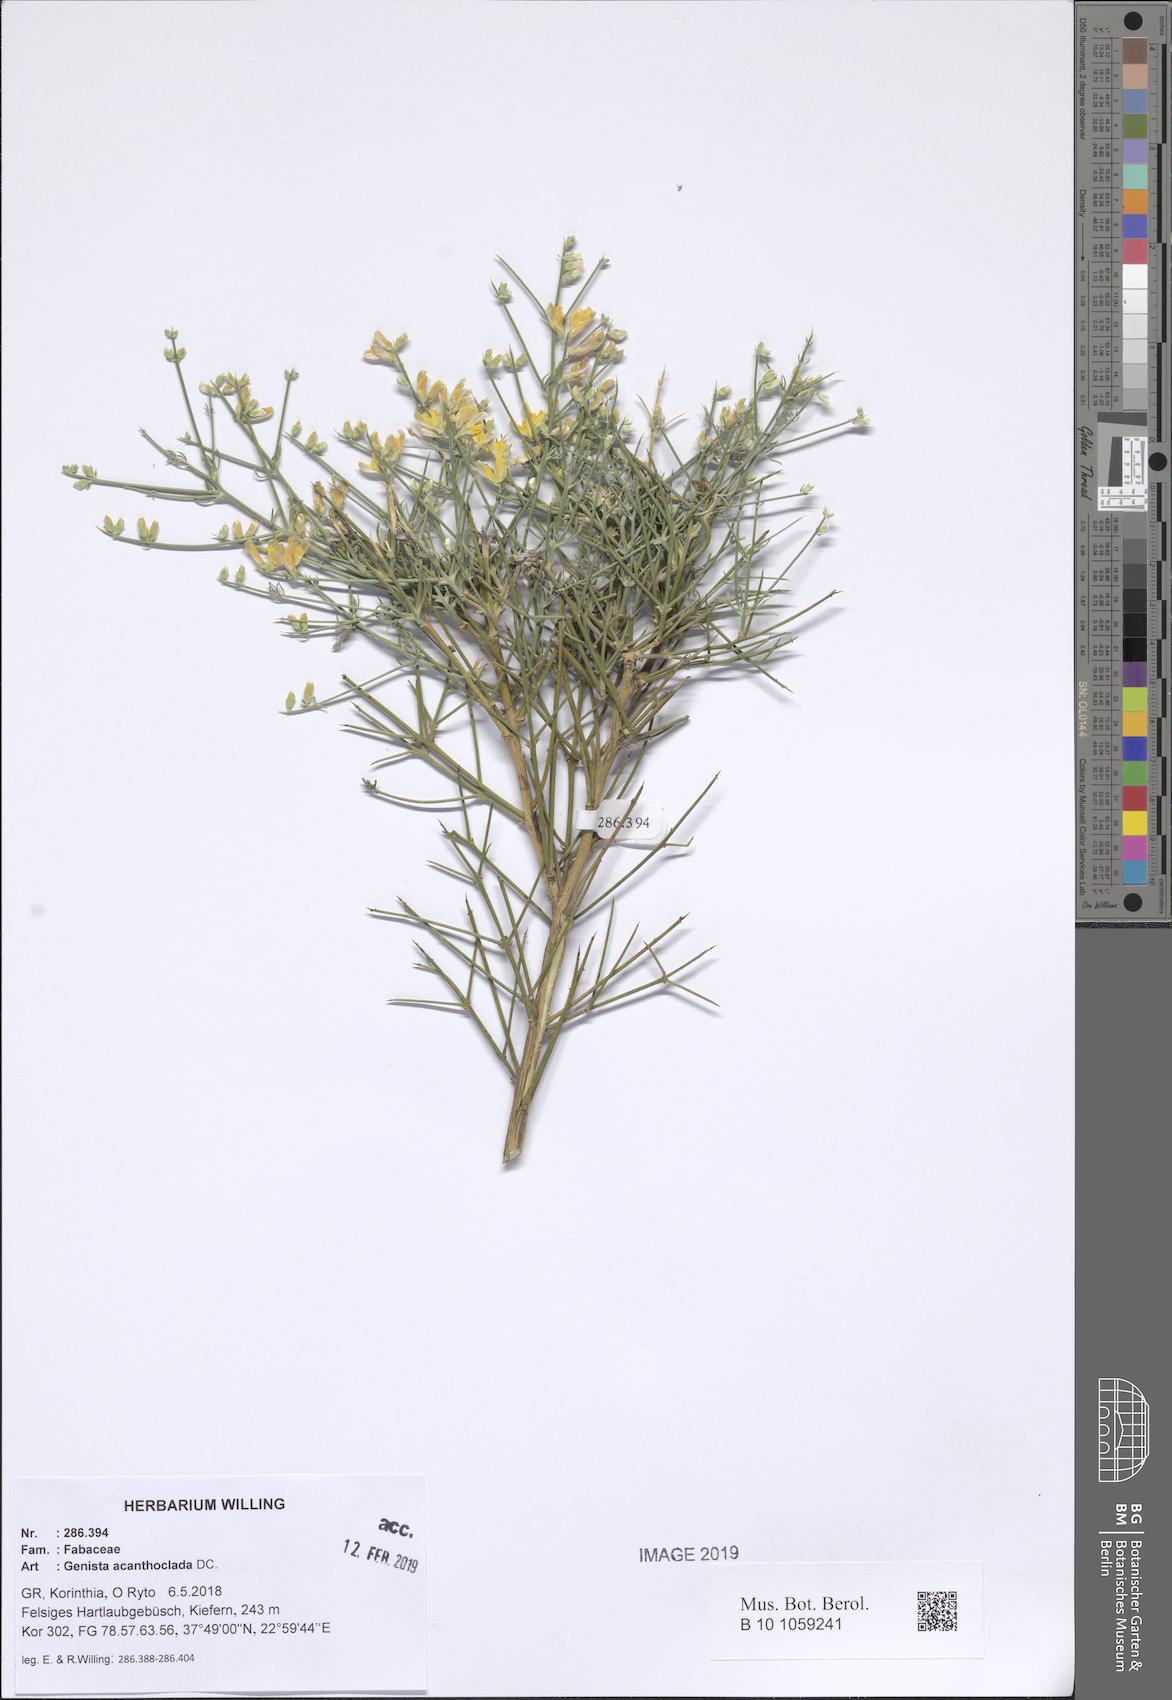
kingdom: Plantae
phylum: Tracheophyta
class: Magnoliopsida
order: Fabales
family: Fabaceae
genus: Genista
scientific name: Genista acanthoclada
